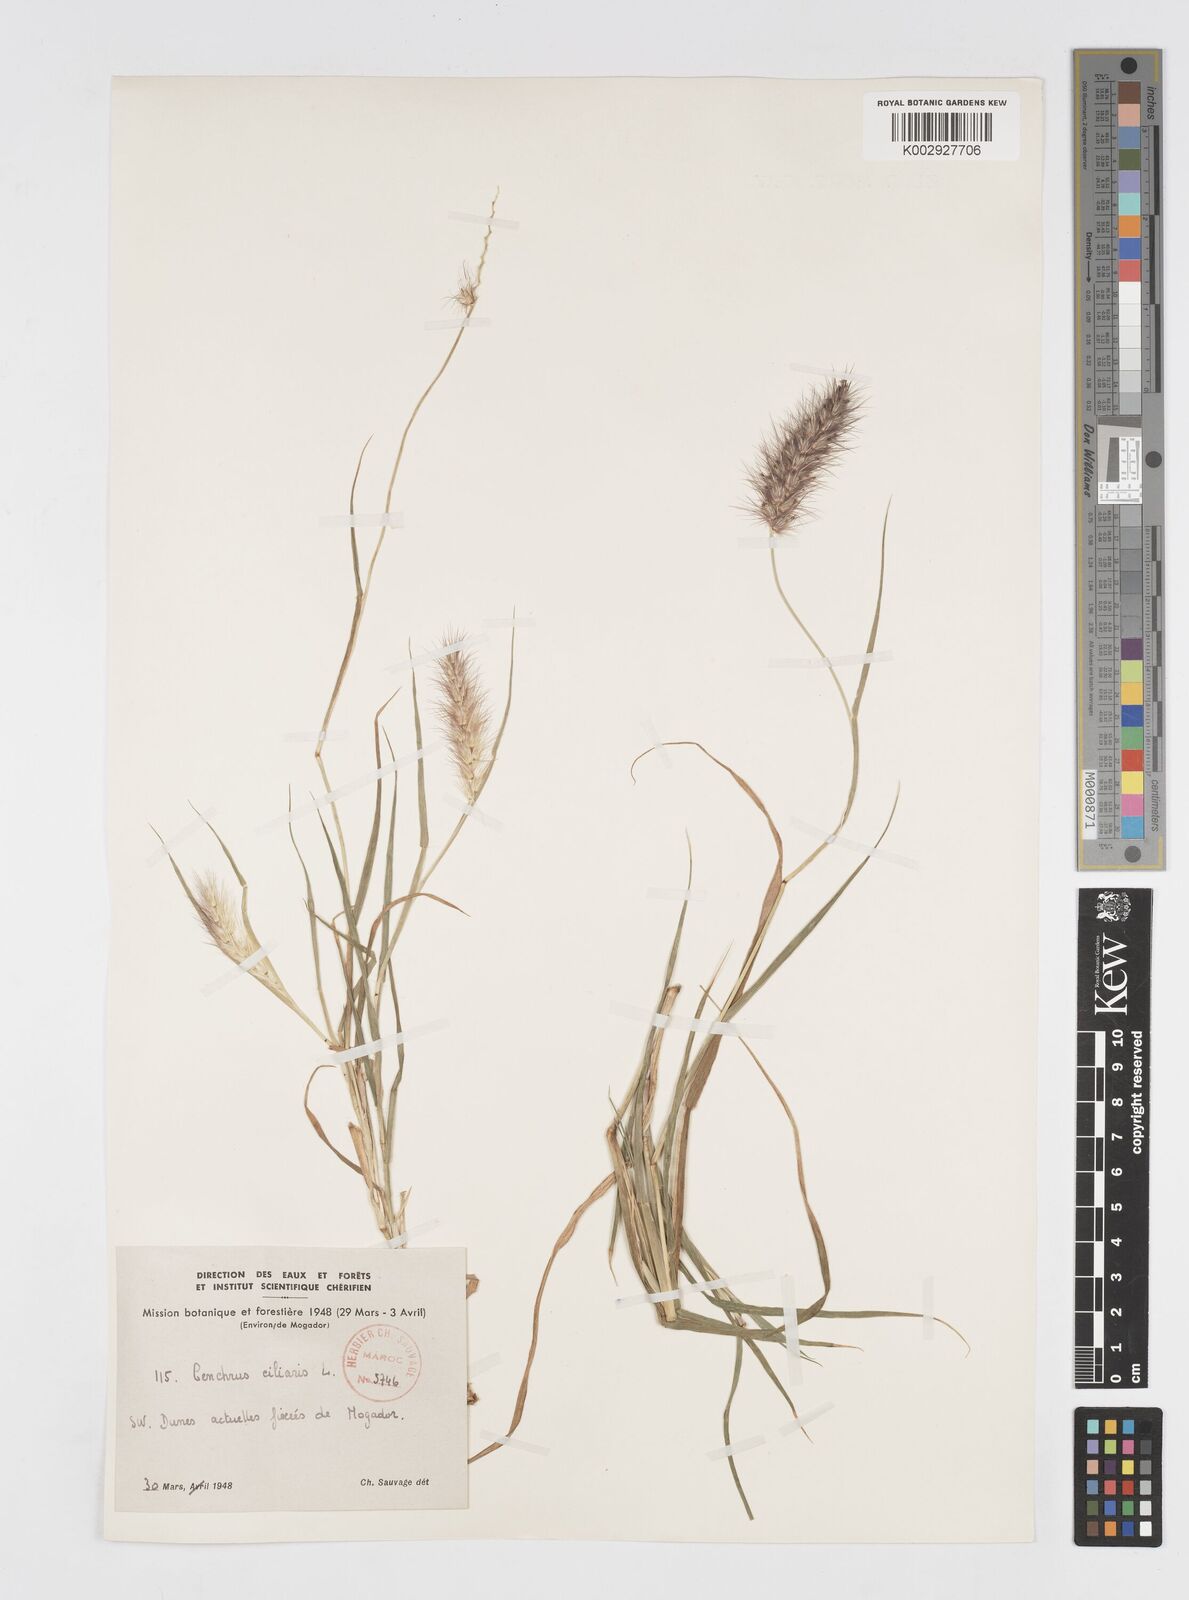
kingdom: Plantae
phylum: Tracheophyta
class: Liliopsida
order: Poales
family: Poaceae
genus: Cenchrus
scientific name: Cenchrus ciliaris
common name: Buffelgrass
